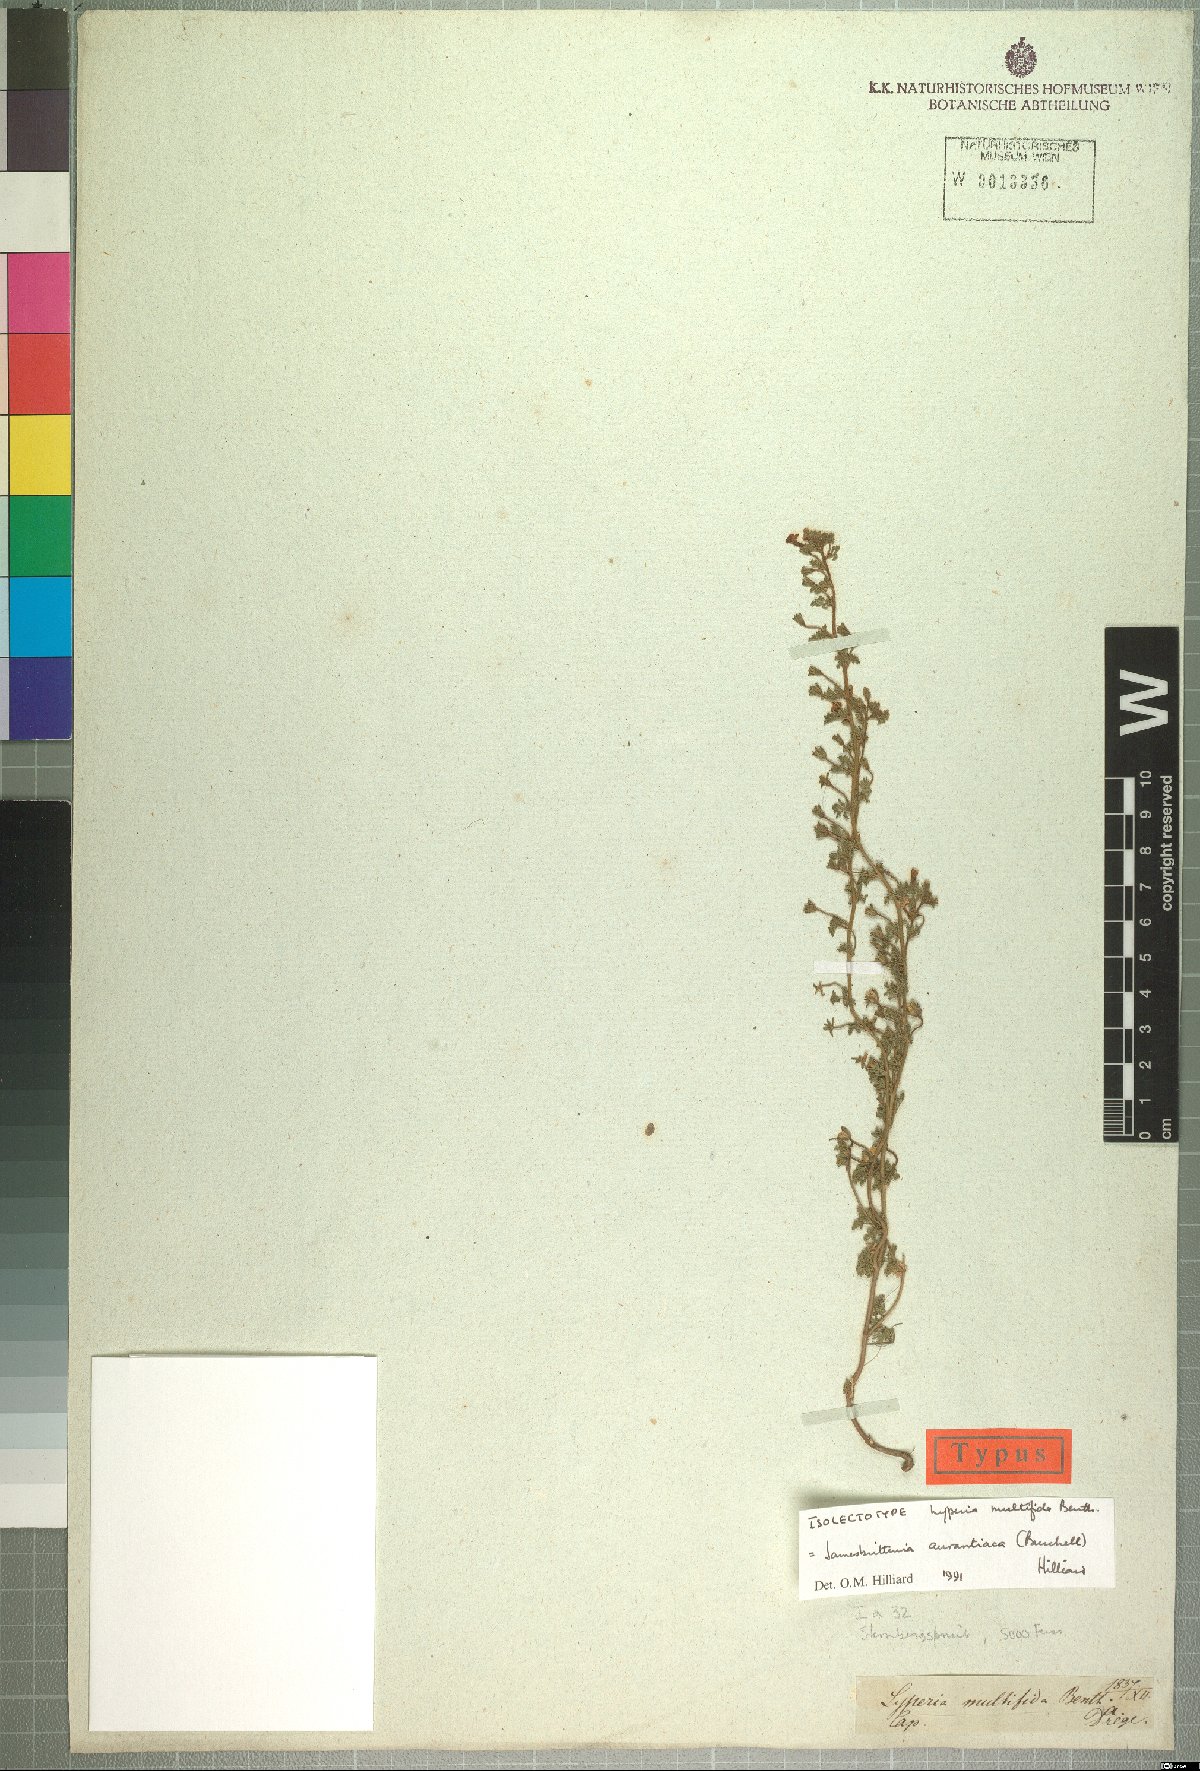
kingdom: Plantae
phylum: Tracheophyta
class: Magnoliopsida
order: Lamiales
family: Scrophulariaceae
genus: Jamesbrittenia
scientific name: Jamesbrittenia aurantiaca
